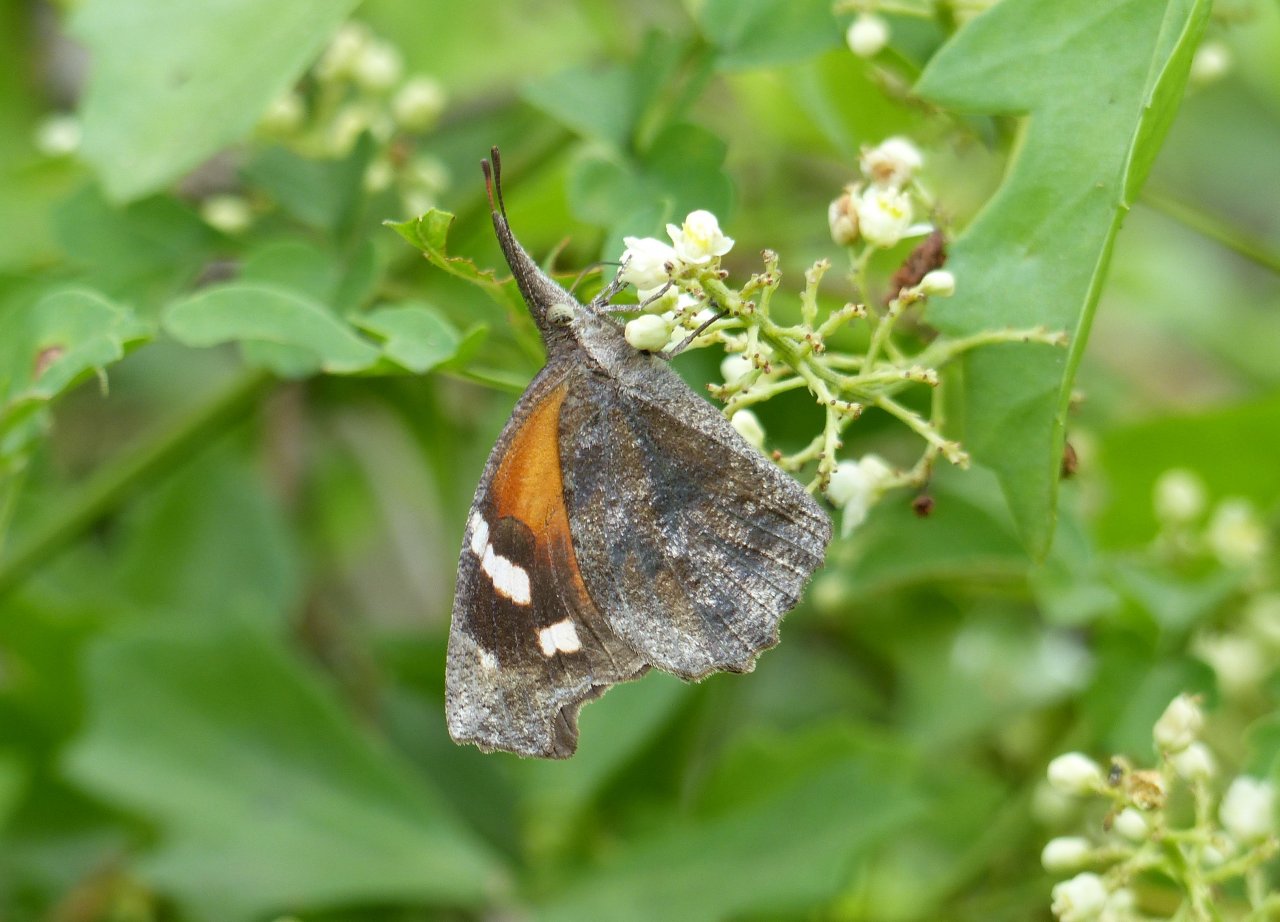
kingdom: Animalia
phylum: Arthropoda
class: Insecta
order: Lepidoptera
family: Nymphalidae
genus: Libytheana
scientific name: Libytheana carinenta
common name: American Snout
